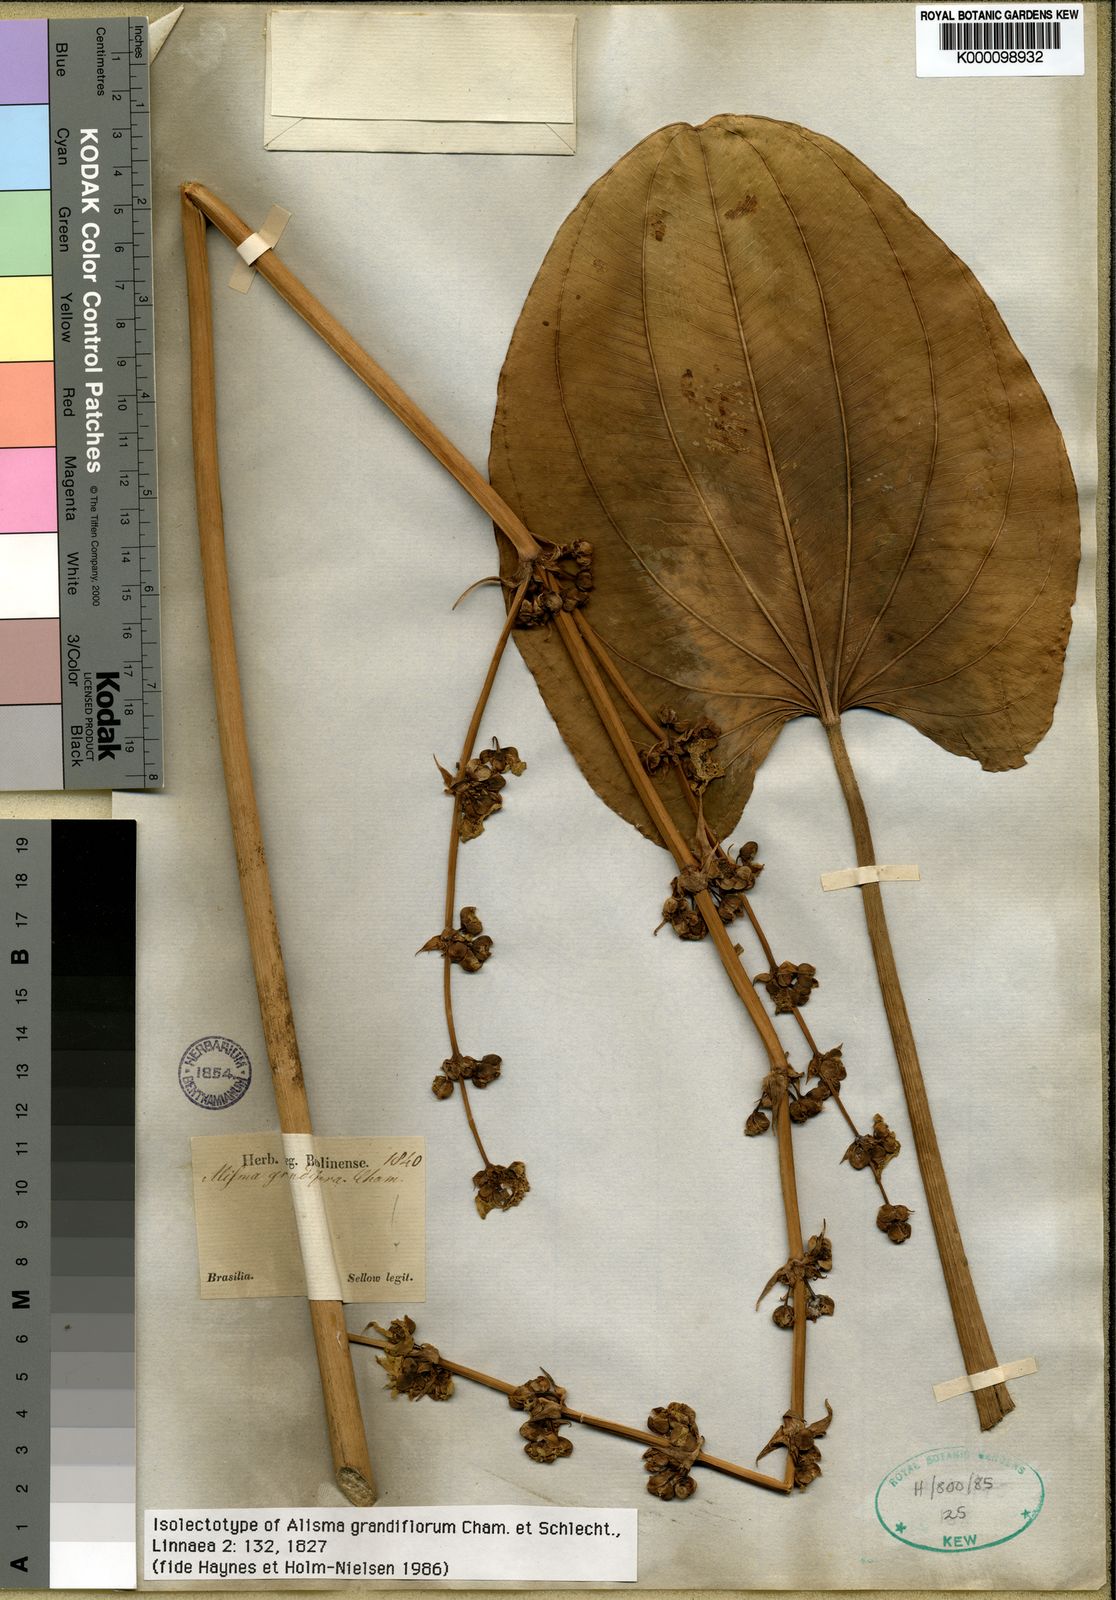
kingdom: Plantae
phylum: Tracheophyta
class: Liliopsida
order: Alismatales
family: Alismataceae
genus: Aquarius
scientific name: Aquarius grandiflorus
